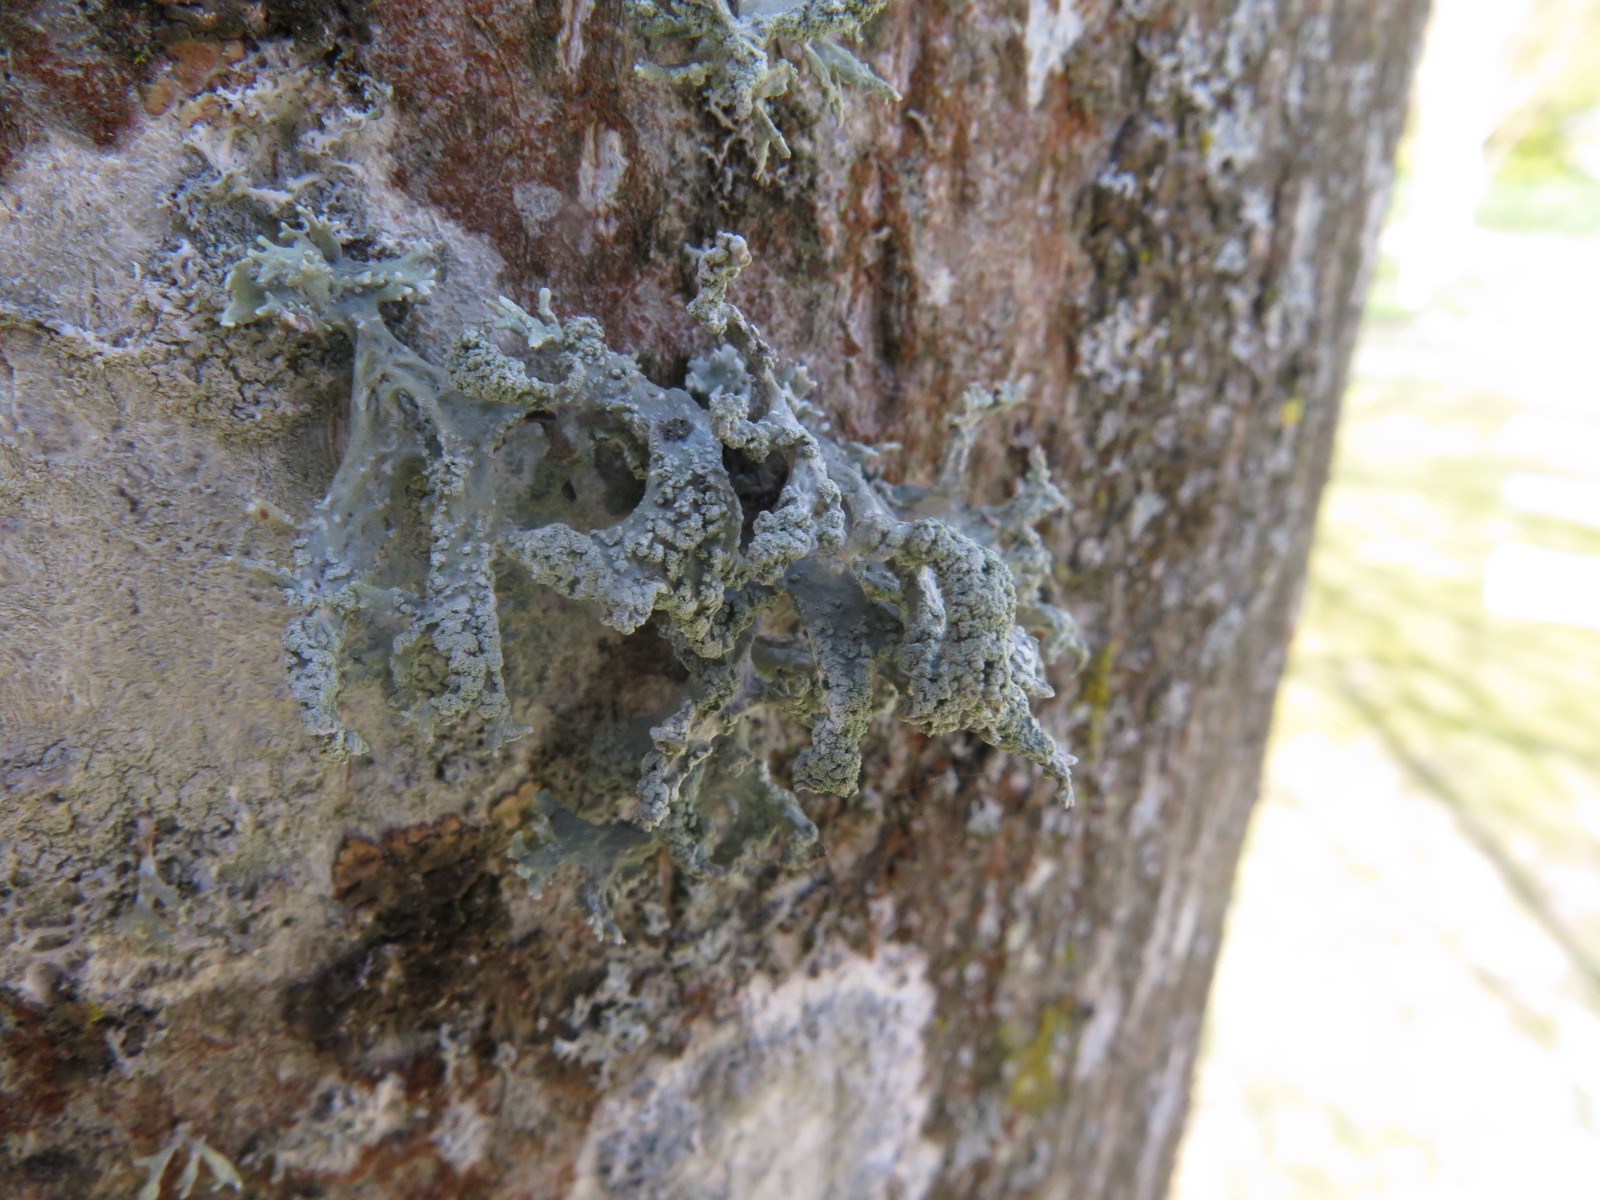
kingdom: Fungi
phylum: Ascomycota
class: Lecanoromycetes
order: Lecanorales
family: Parmeliaceae
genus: Evernia
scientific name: Evernia prunastri
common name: almindelig slåenlav
